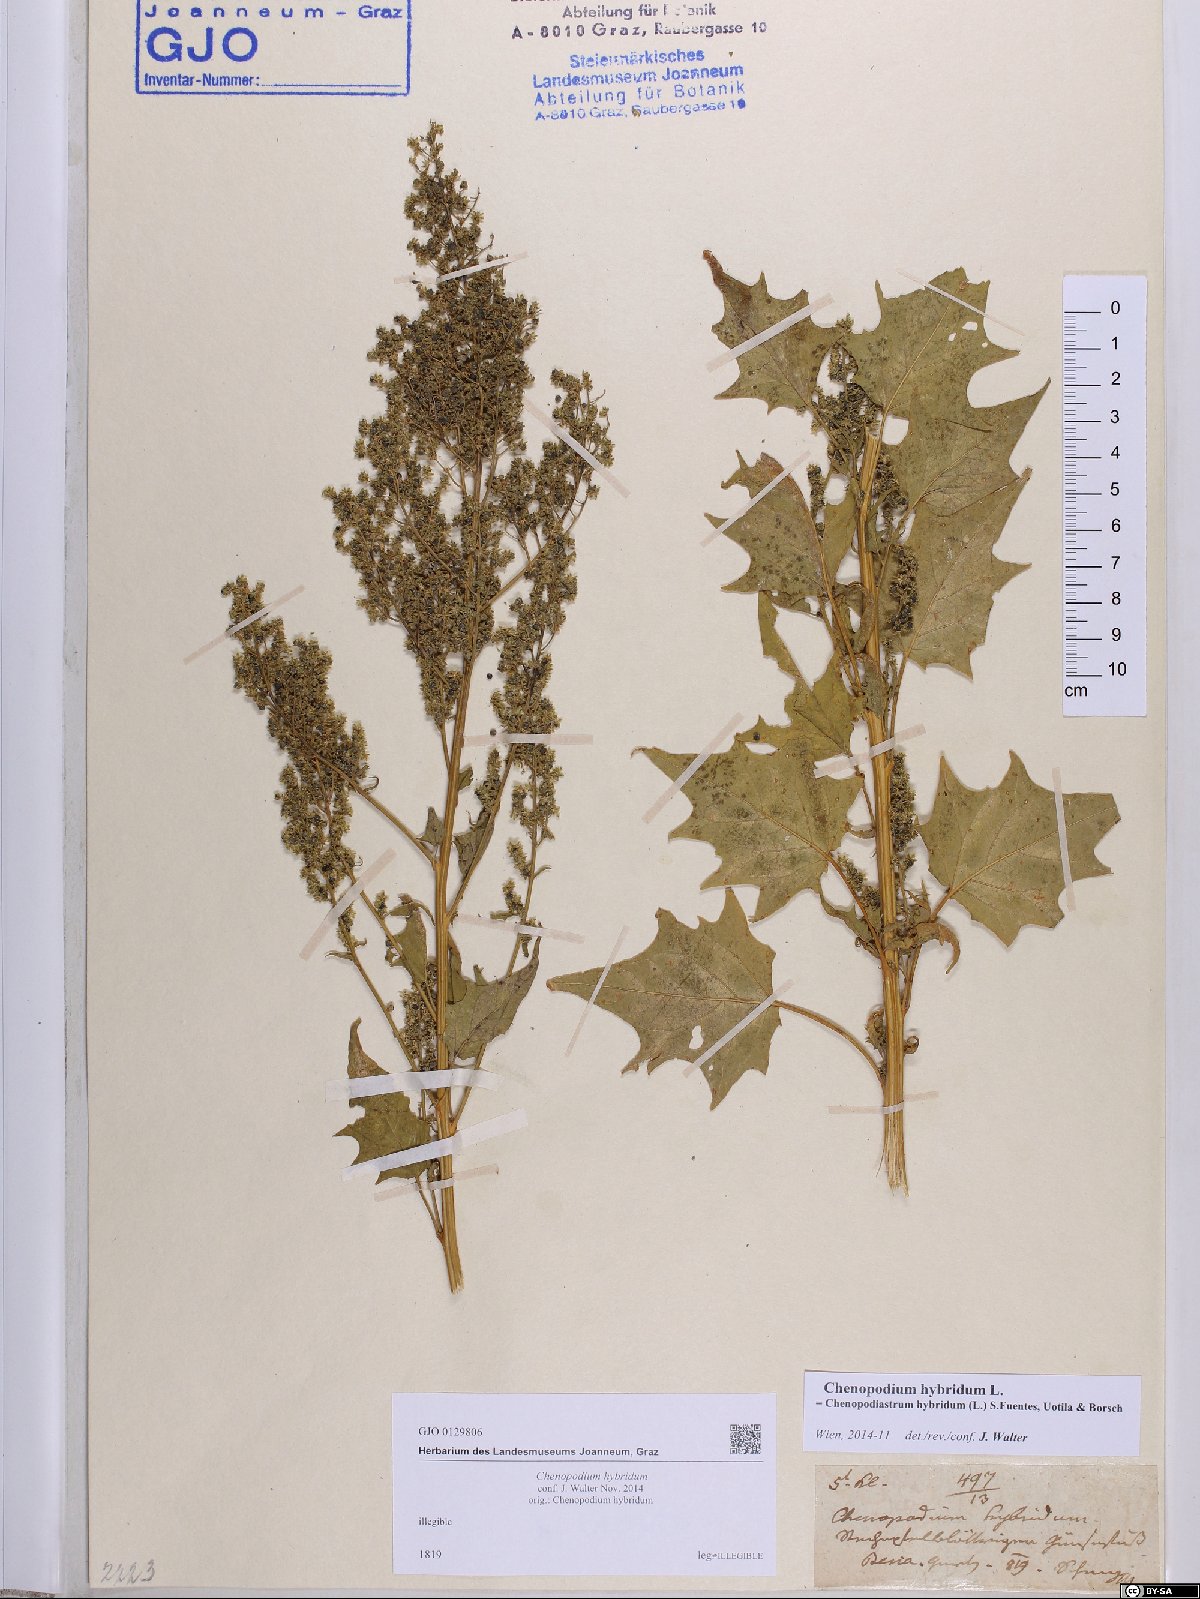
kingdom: Plantae
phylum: Tracheophyta
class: Magnoliopsida
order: Caryophyllales
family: Amaranthaceae
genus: Chenopodiastrum
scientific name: Chenopodiastrum hybridum
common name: Mapleleaf goosefoot
